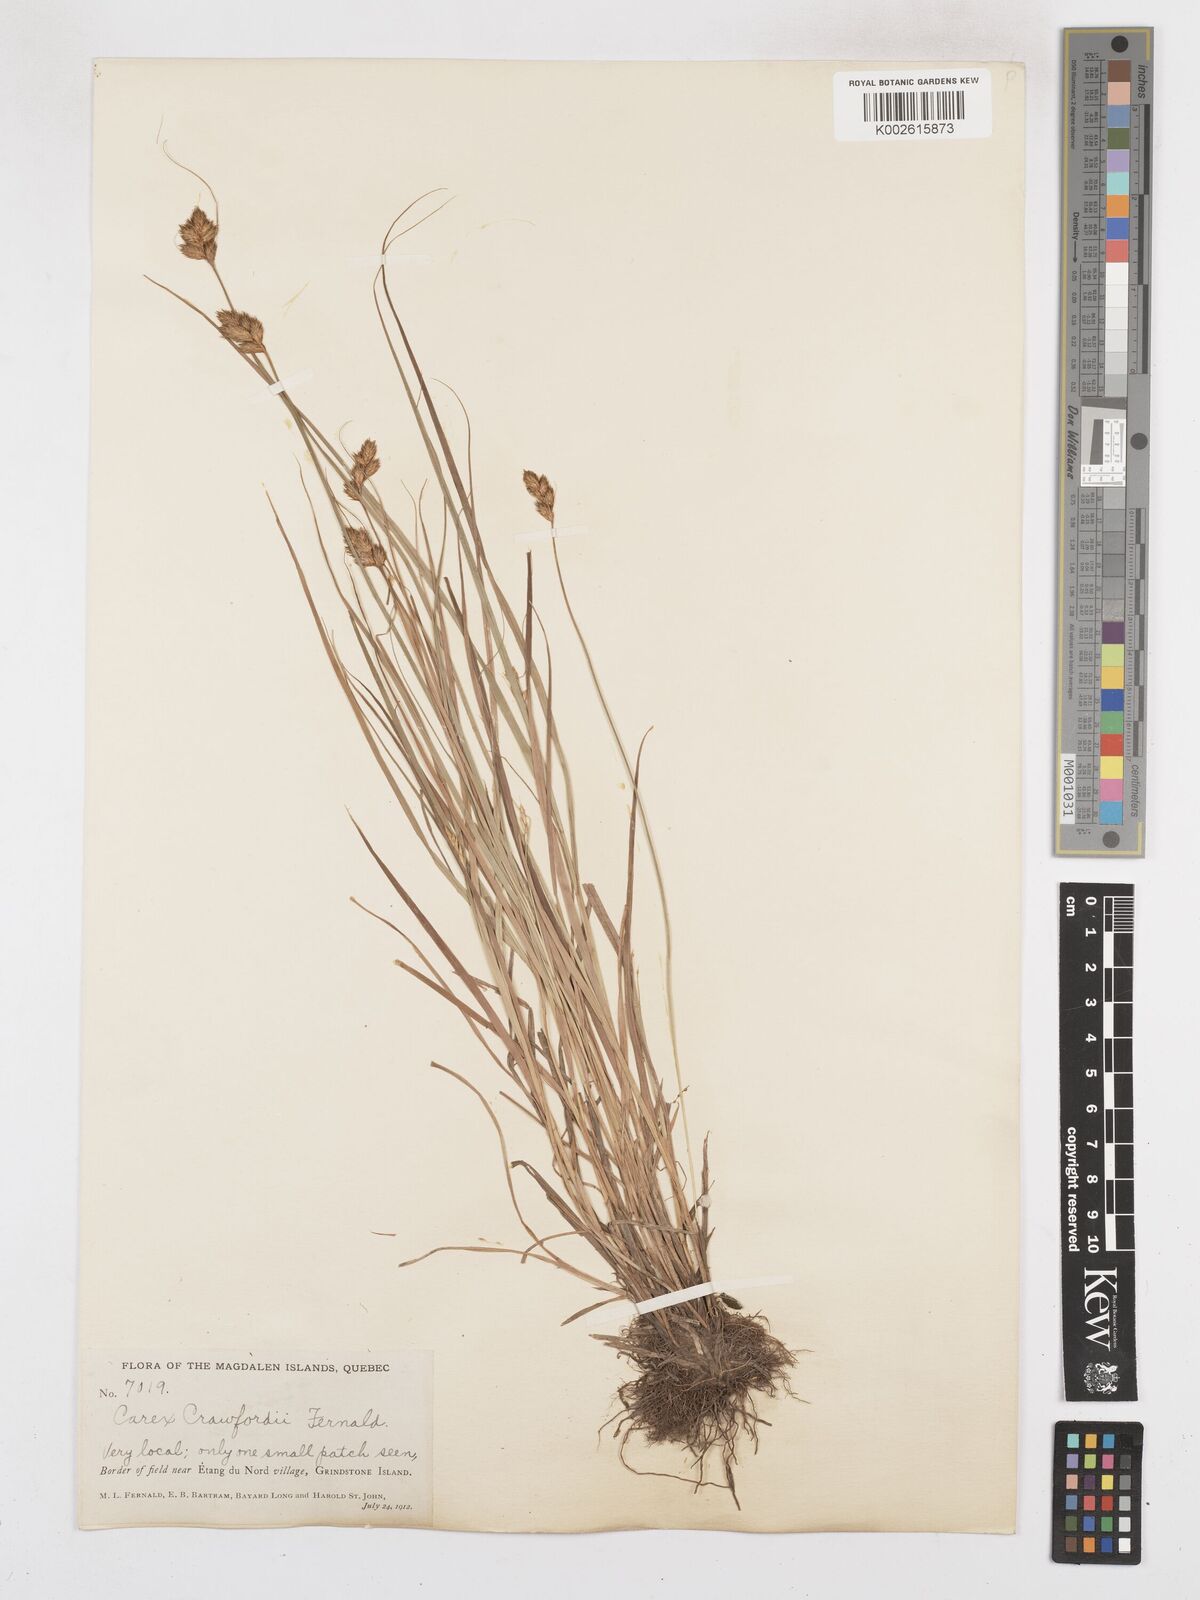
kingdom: Plantae
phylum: Tracheophyta
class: Liliopsida
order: Poales
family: Cyperaceae
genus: Carex
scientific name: Carex crawfordii
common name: Crawford's sedge
